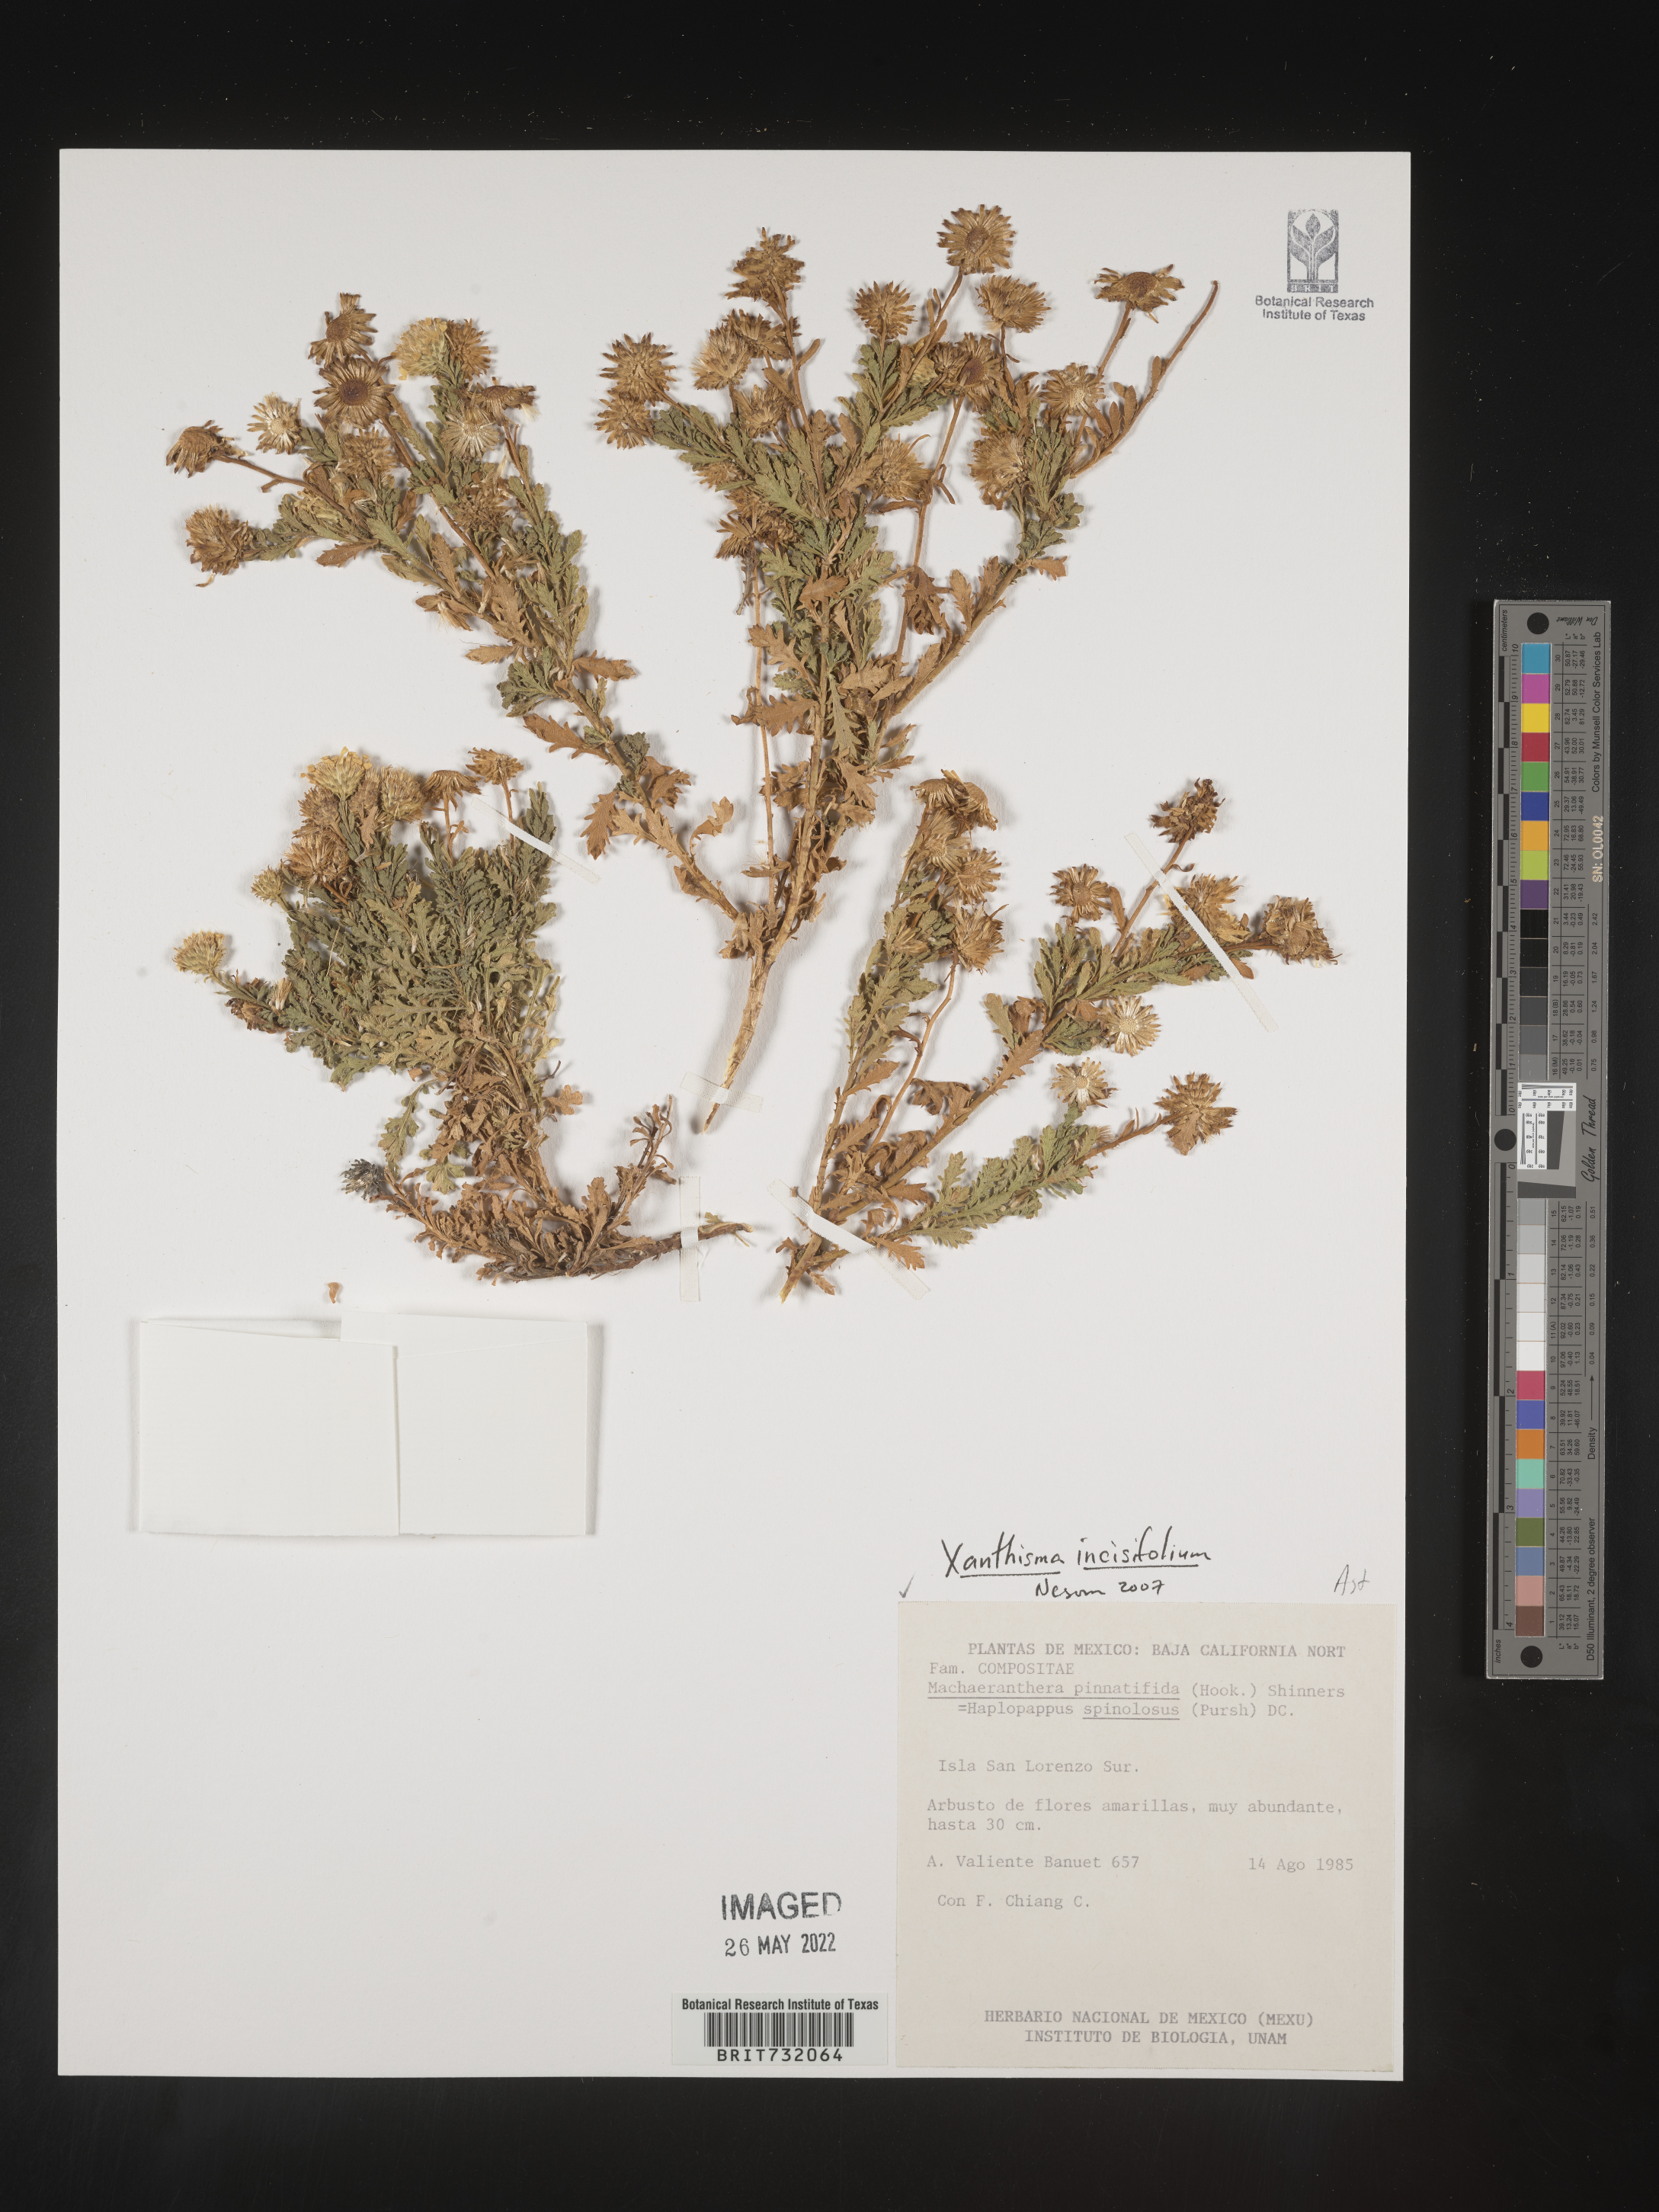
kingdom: Plantae
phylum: Tracheophyta
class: Magnoliopsida
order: Asterales
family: Asteraceae
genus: Xanthisma
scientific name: Xanthisma spinulosum
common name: Spiny goldenweed
